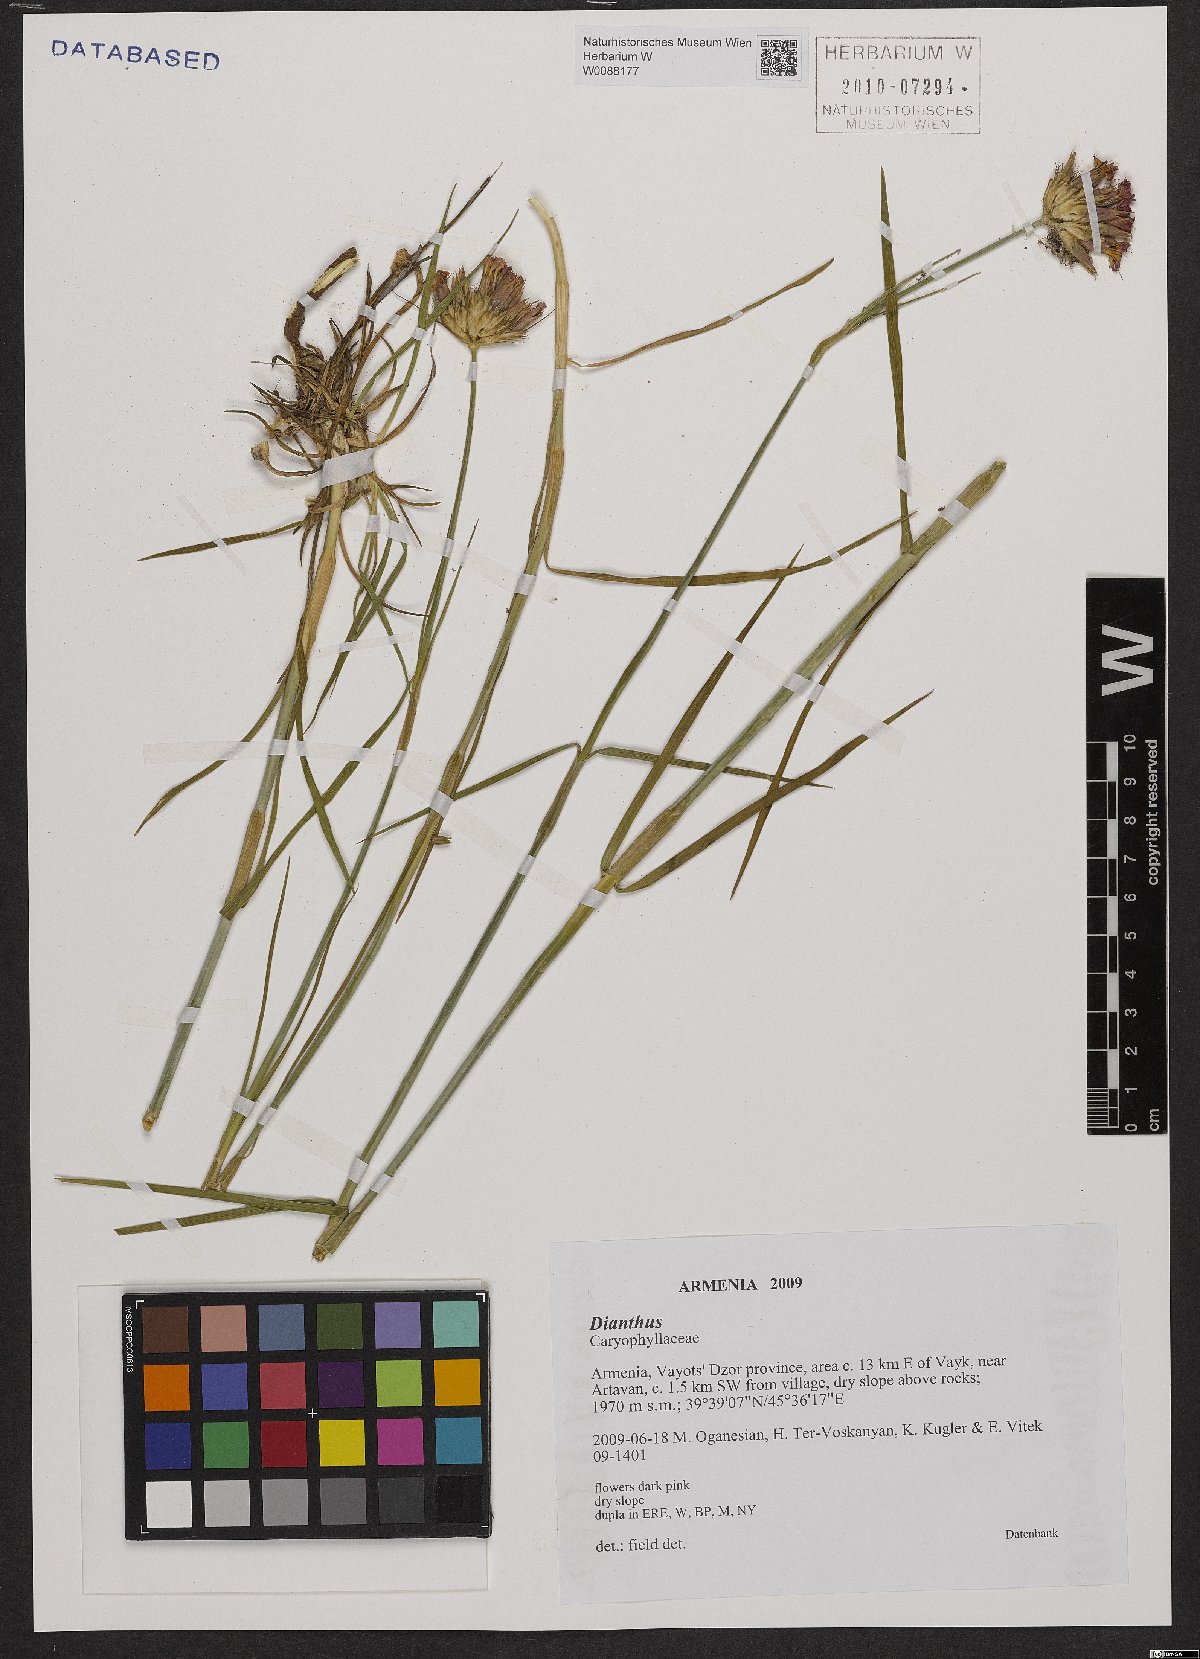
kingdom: Plantae
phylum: Tracheophyta
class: Magnoliopsida
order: Caryophyllales
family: Caryophyllaceae
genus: Dianthus
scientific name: Dianthus
